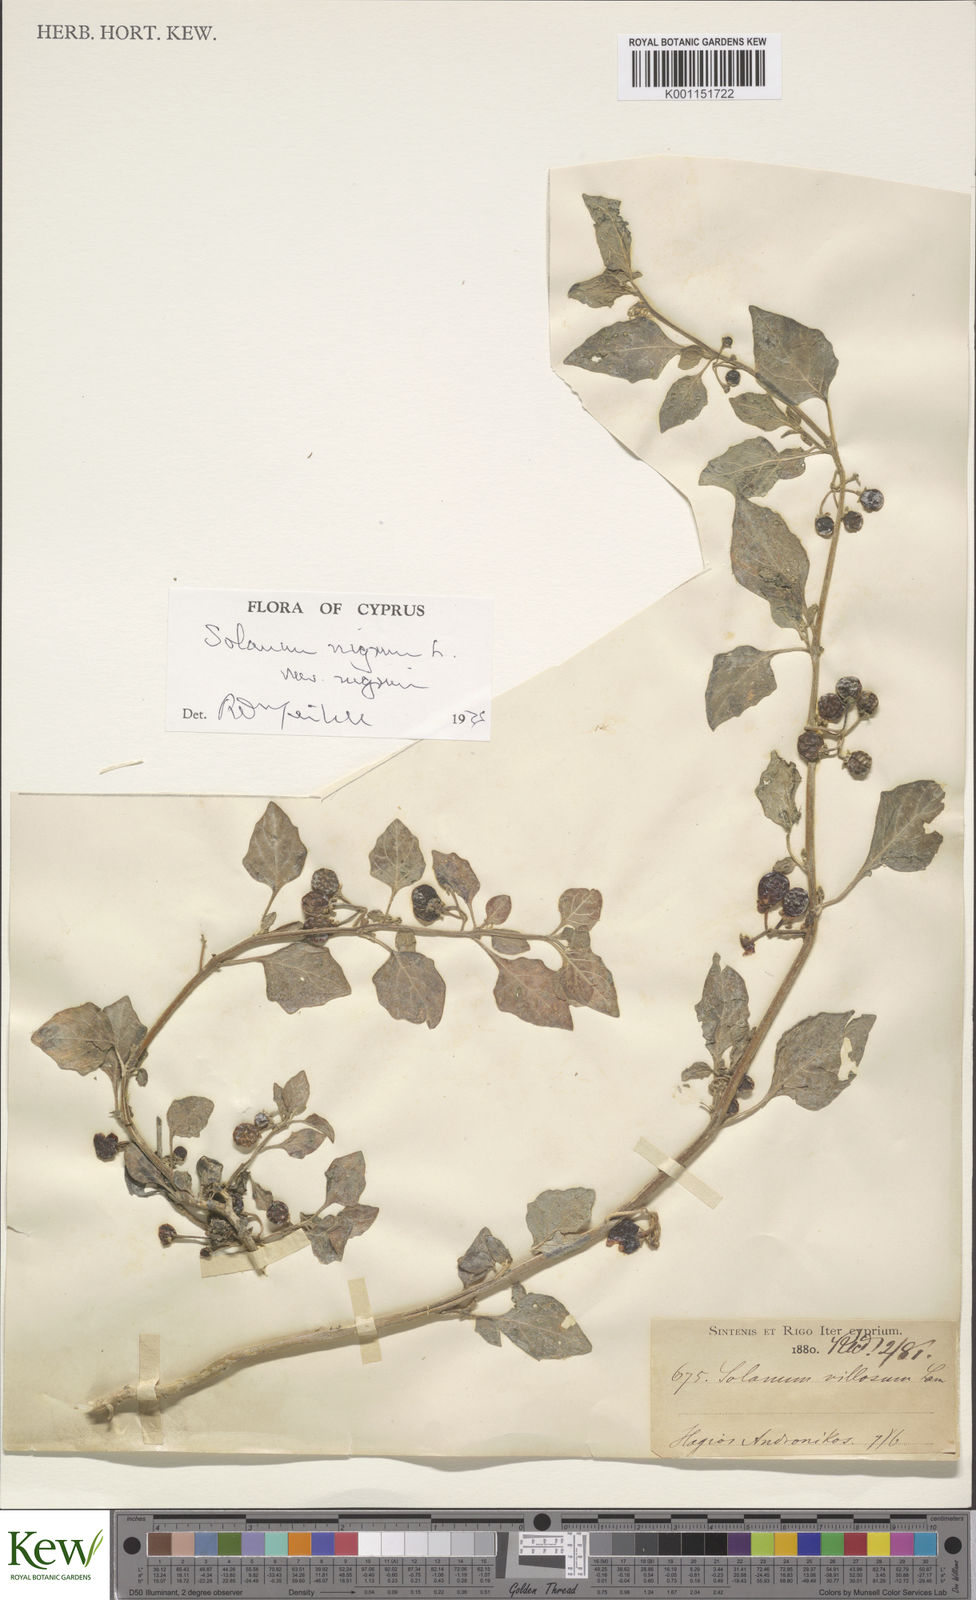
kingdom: Plantae
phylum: Tracheophyta
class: Magnoliopsida
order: Solanales
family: Solanaceae
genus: Solanum
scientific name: Solanum nigrum
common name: Black nightshade
